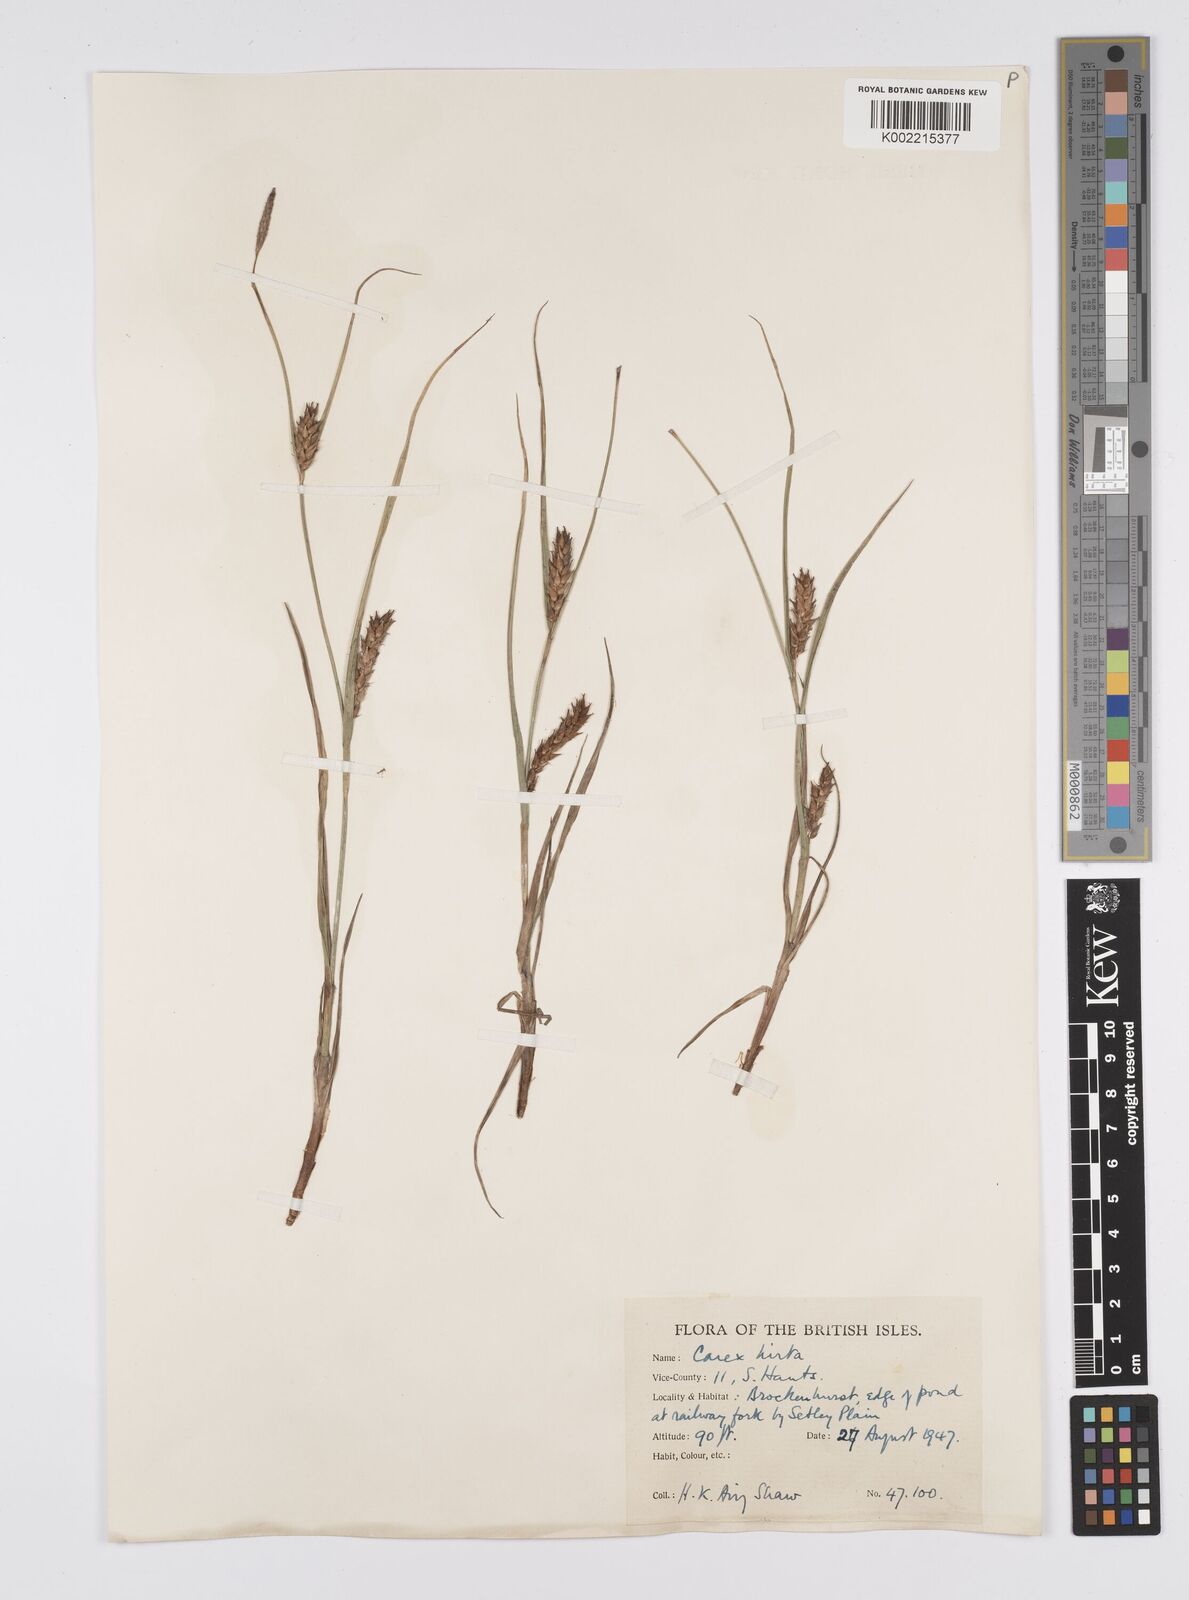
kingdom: Plantae
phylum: Tracheophyta
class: Liliopsida
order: Poales
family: Cyperaceae
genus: Carex
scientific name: Carex hirta
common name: Hairy sedge
